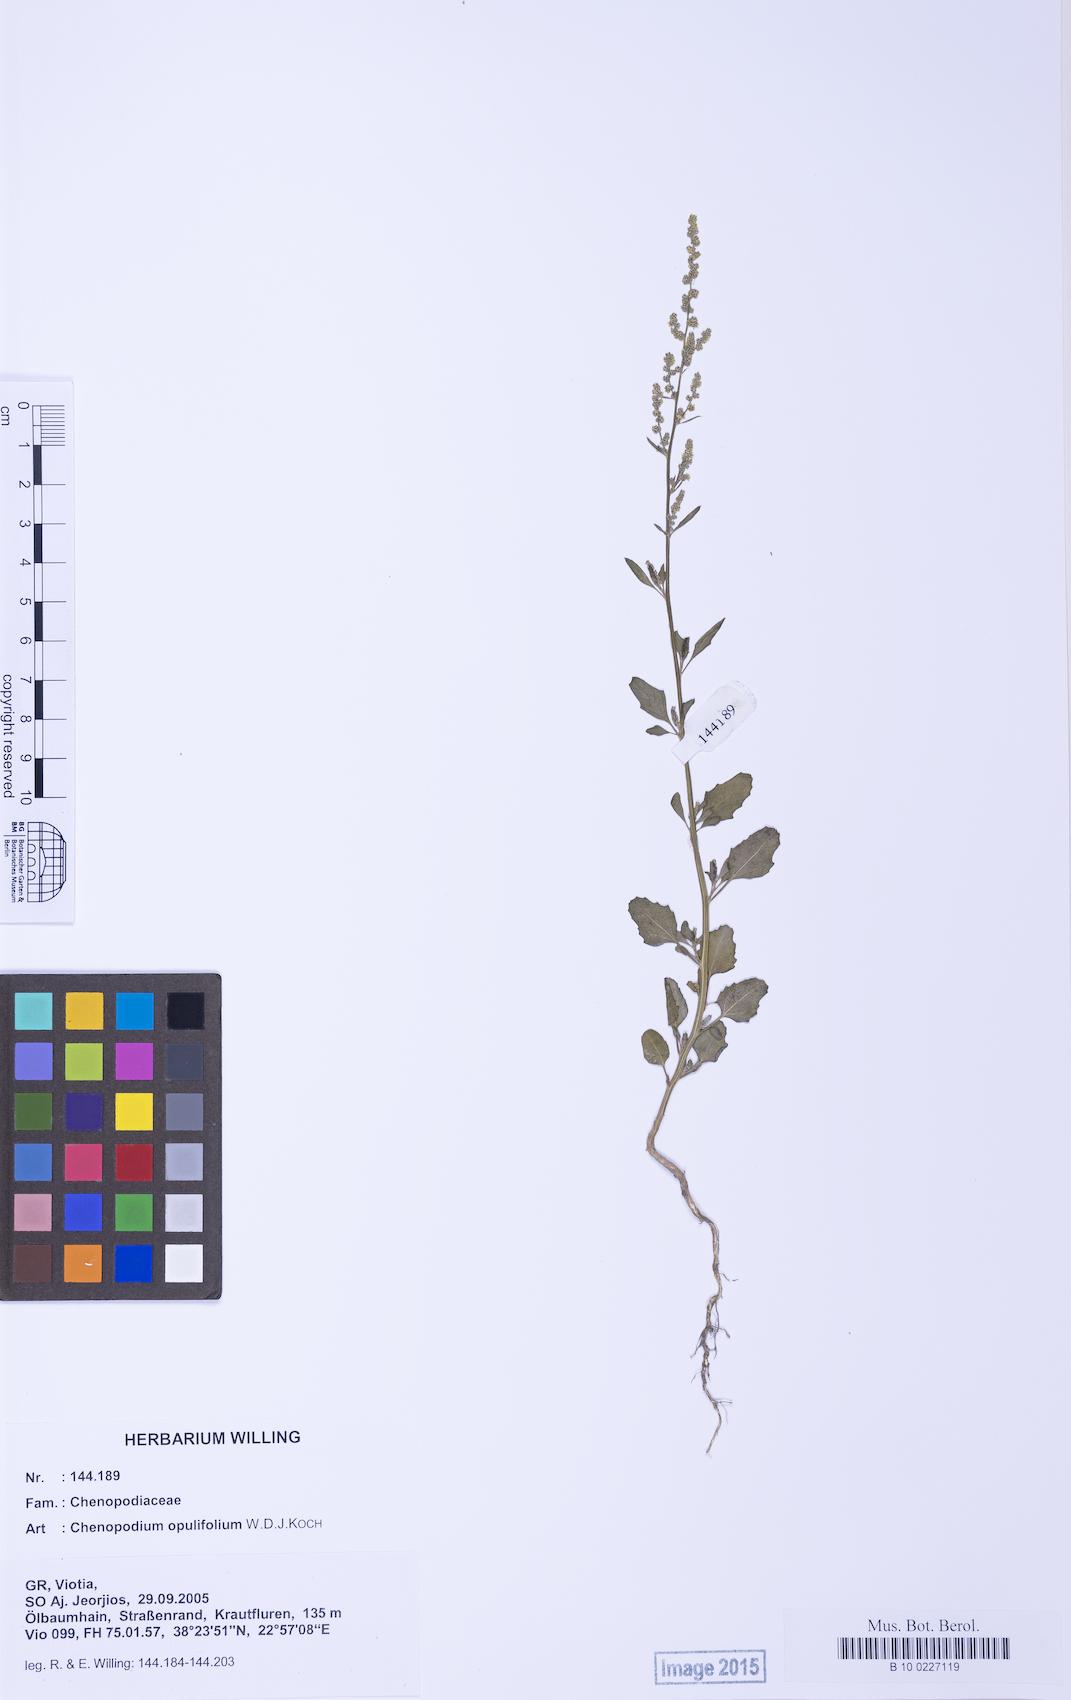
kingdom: Plantae
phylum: Tracheophyta
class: Magnoliopsida
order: Caryophyllales
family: Amaranthaceae
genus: Chenopodium
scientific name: Chenopodium album
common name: Fat-hen
